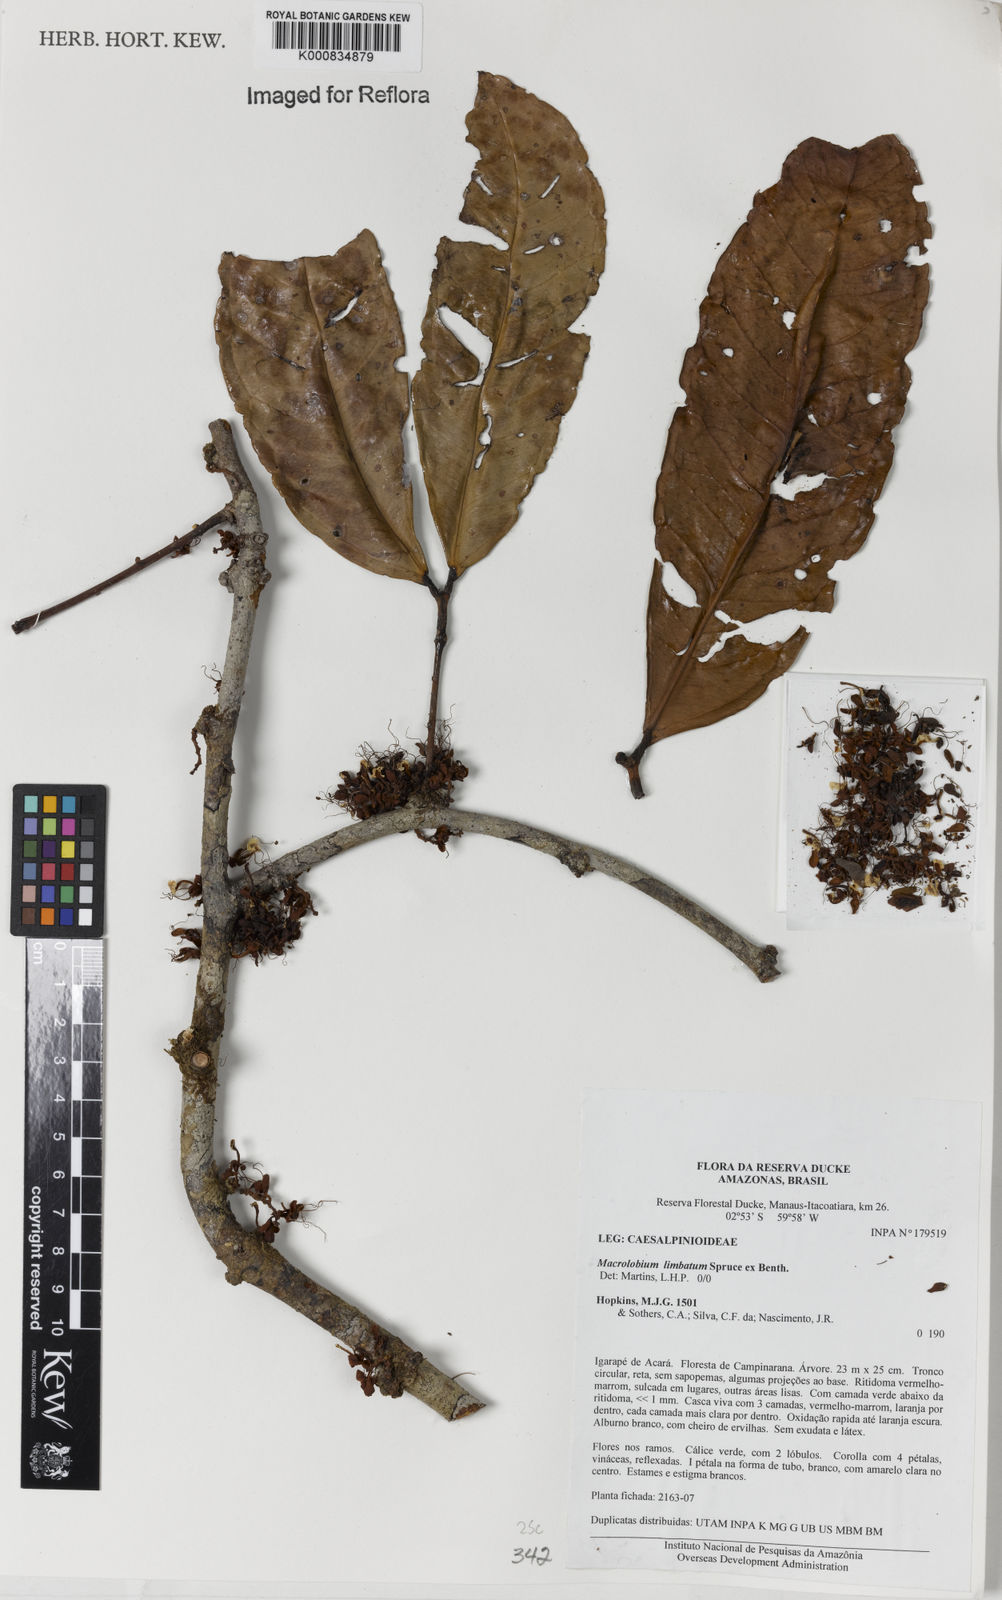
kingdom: Plantae
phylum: Tracheophyta
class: Magnoliopsida
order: Fabales
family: Fabaceae
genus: Macrolobium
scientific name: Macrolobium limbatum
